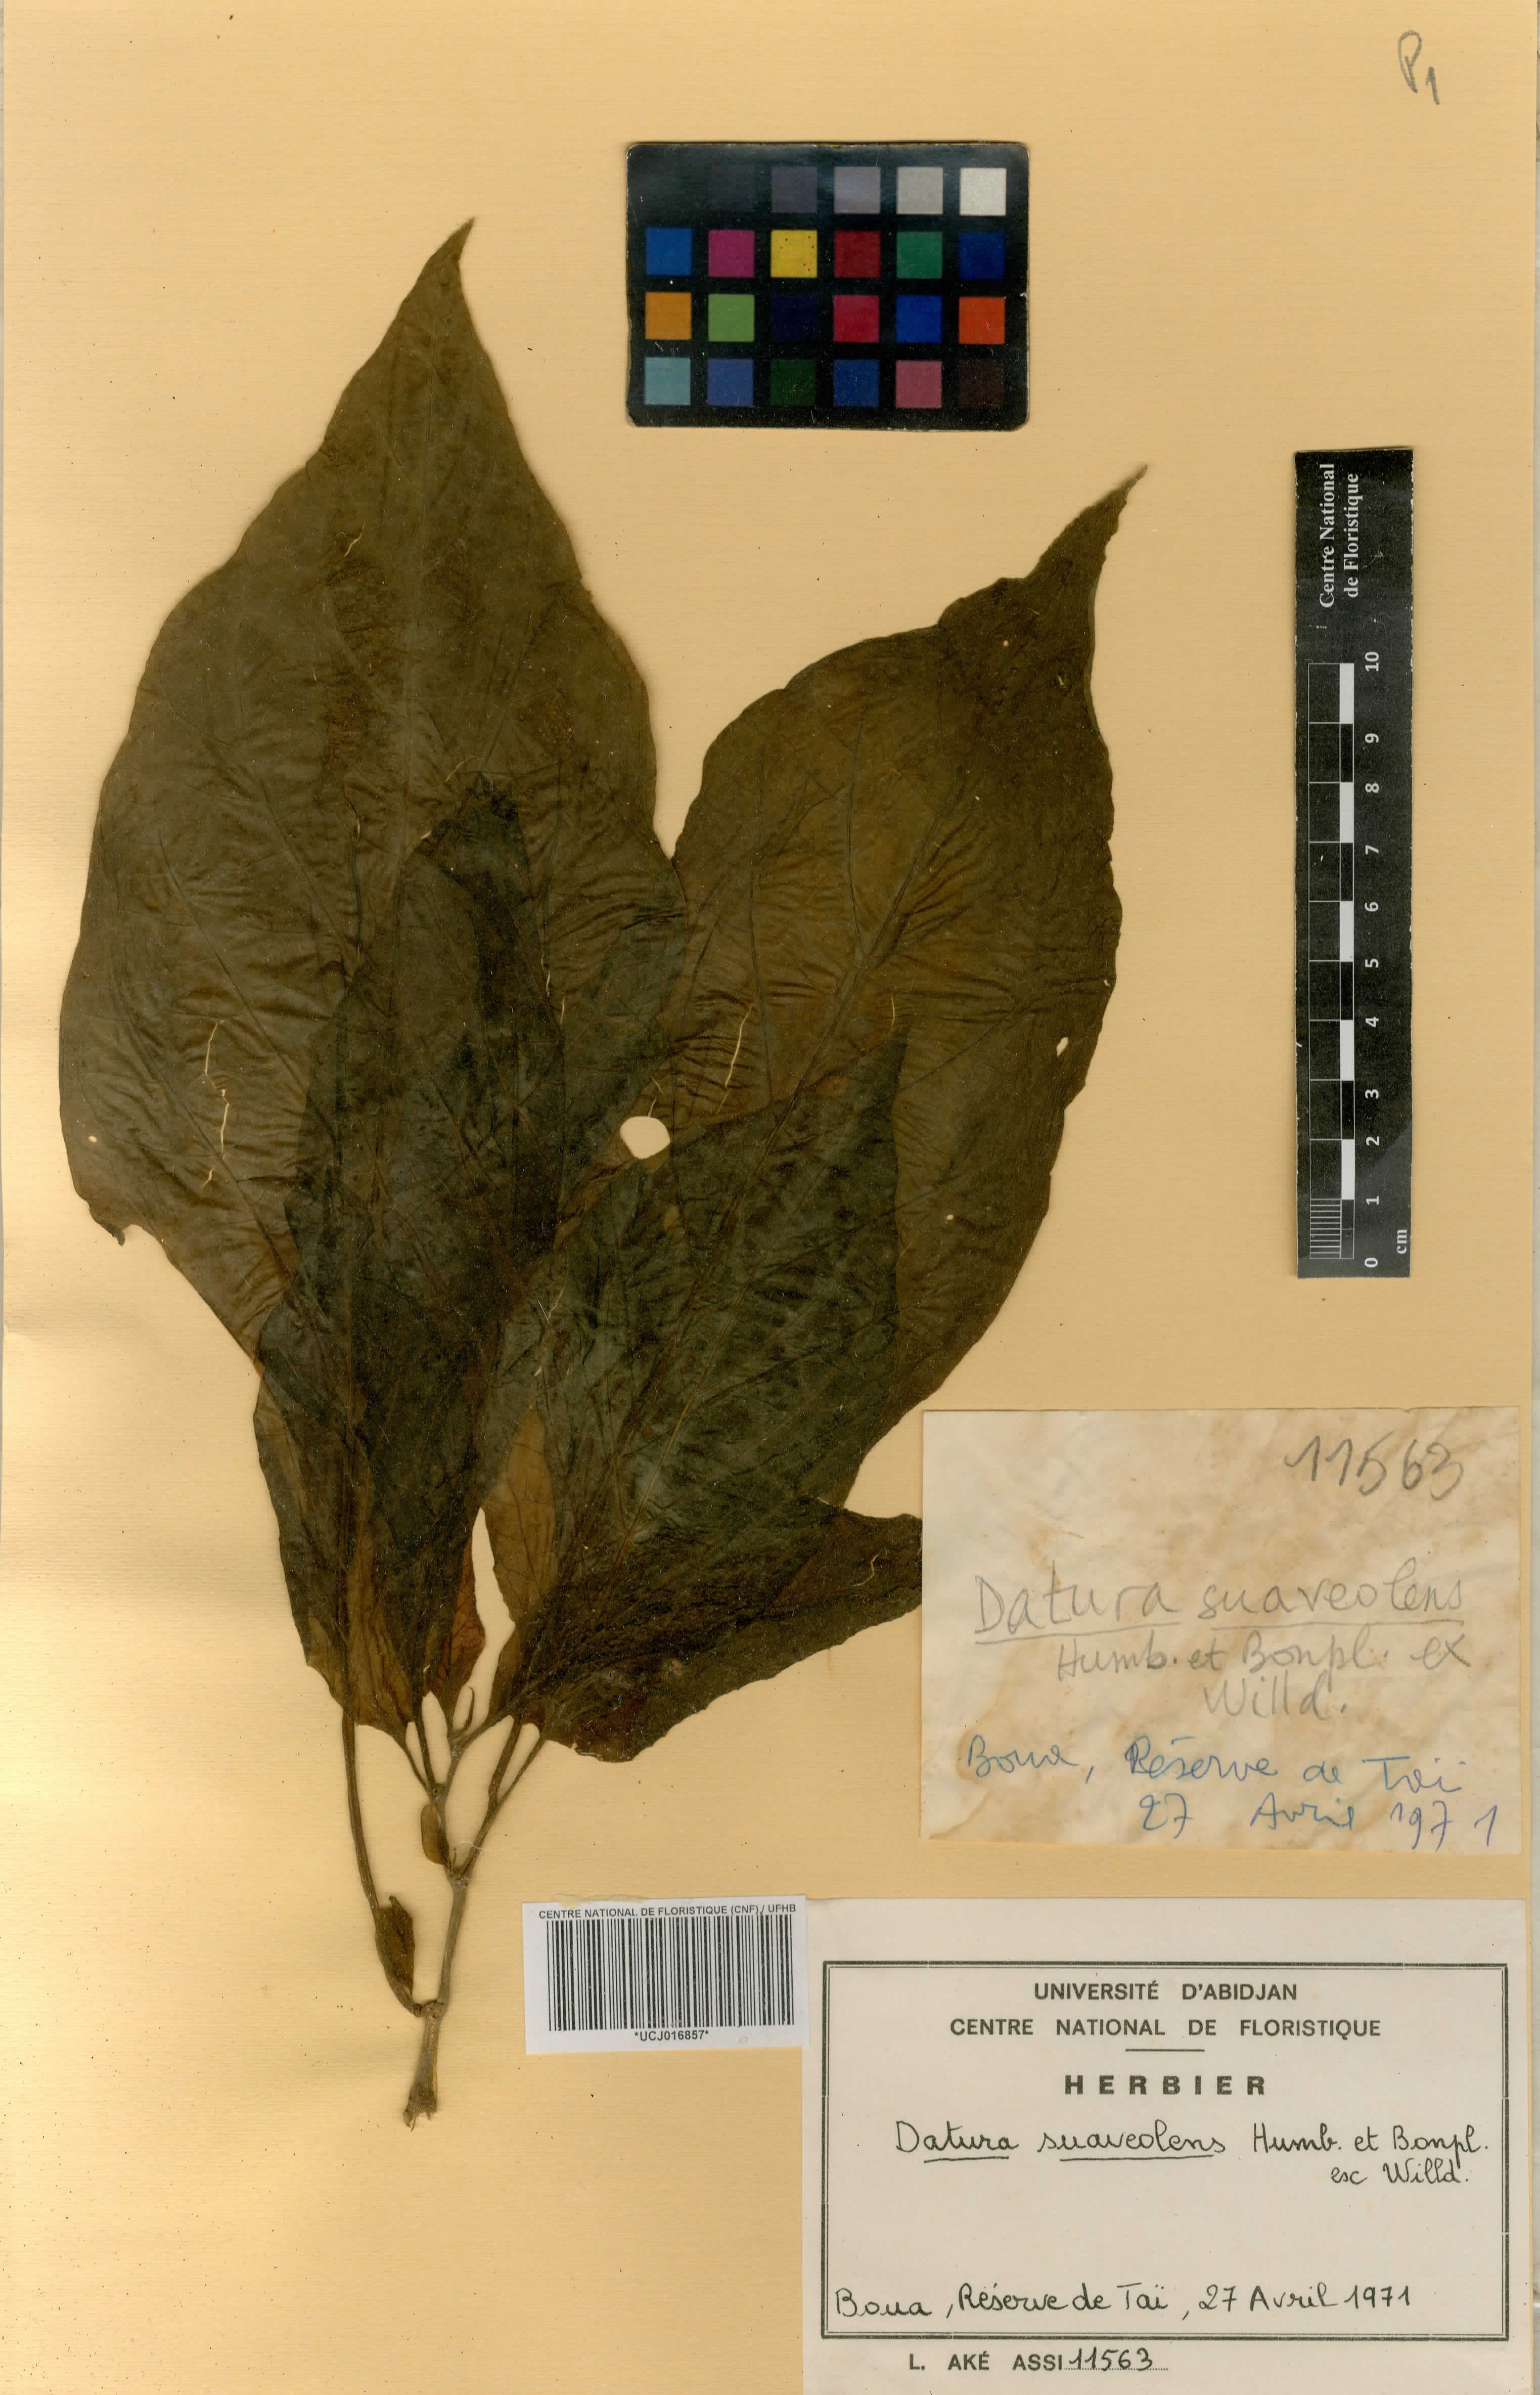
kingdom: Plantae
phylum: Tracheophyta
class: Magnoliopsida
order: Solanales
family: Solanaceae
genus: Brugmansia
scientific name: Brugmansia suaveolens
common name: Angel's tears
